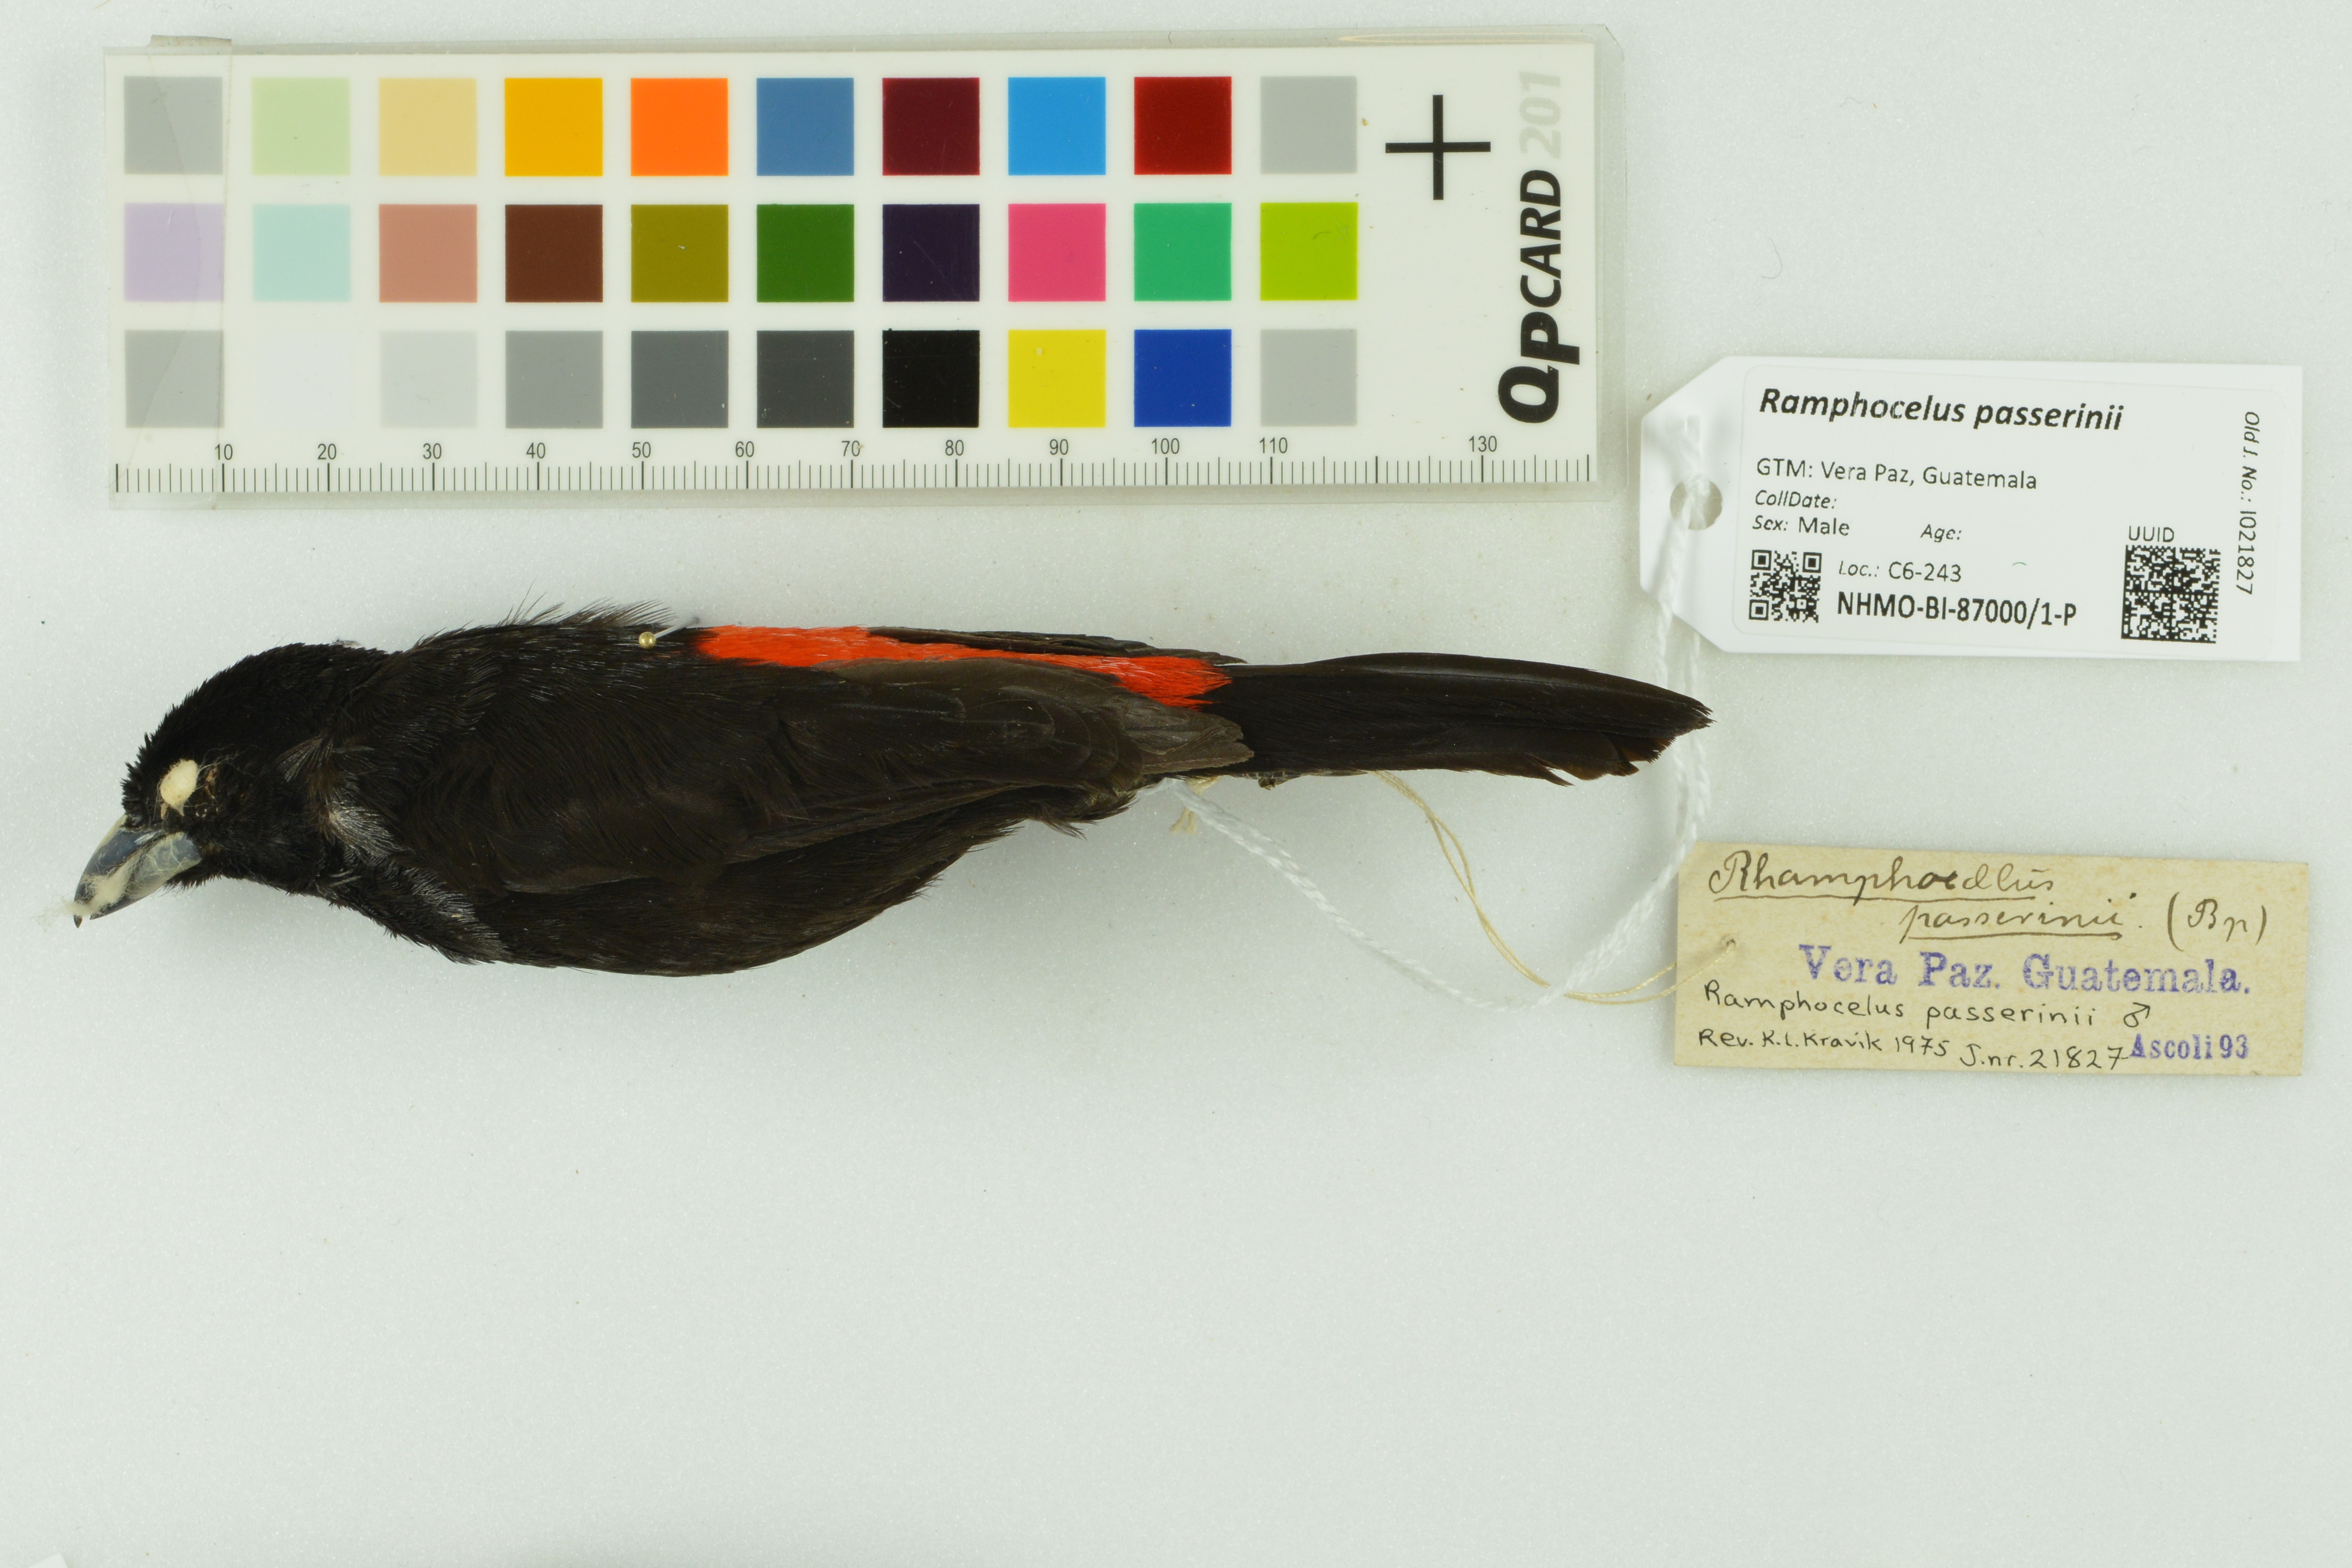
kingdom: Animalia
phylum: Chordata
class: Aves
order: Passeriformes
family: Thraupidae
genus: Ramphocelus
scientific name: Ramphocelus passerinii
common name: Passerini's tanager
